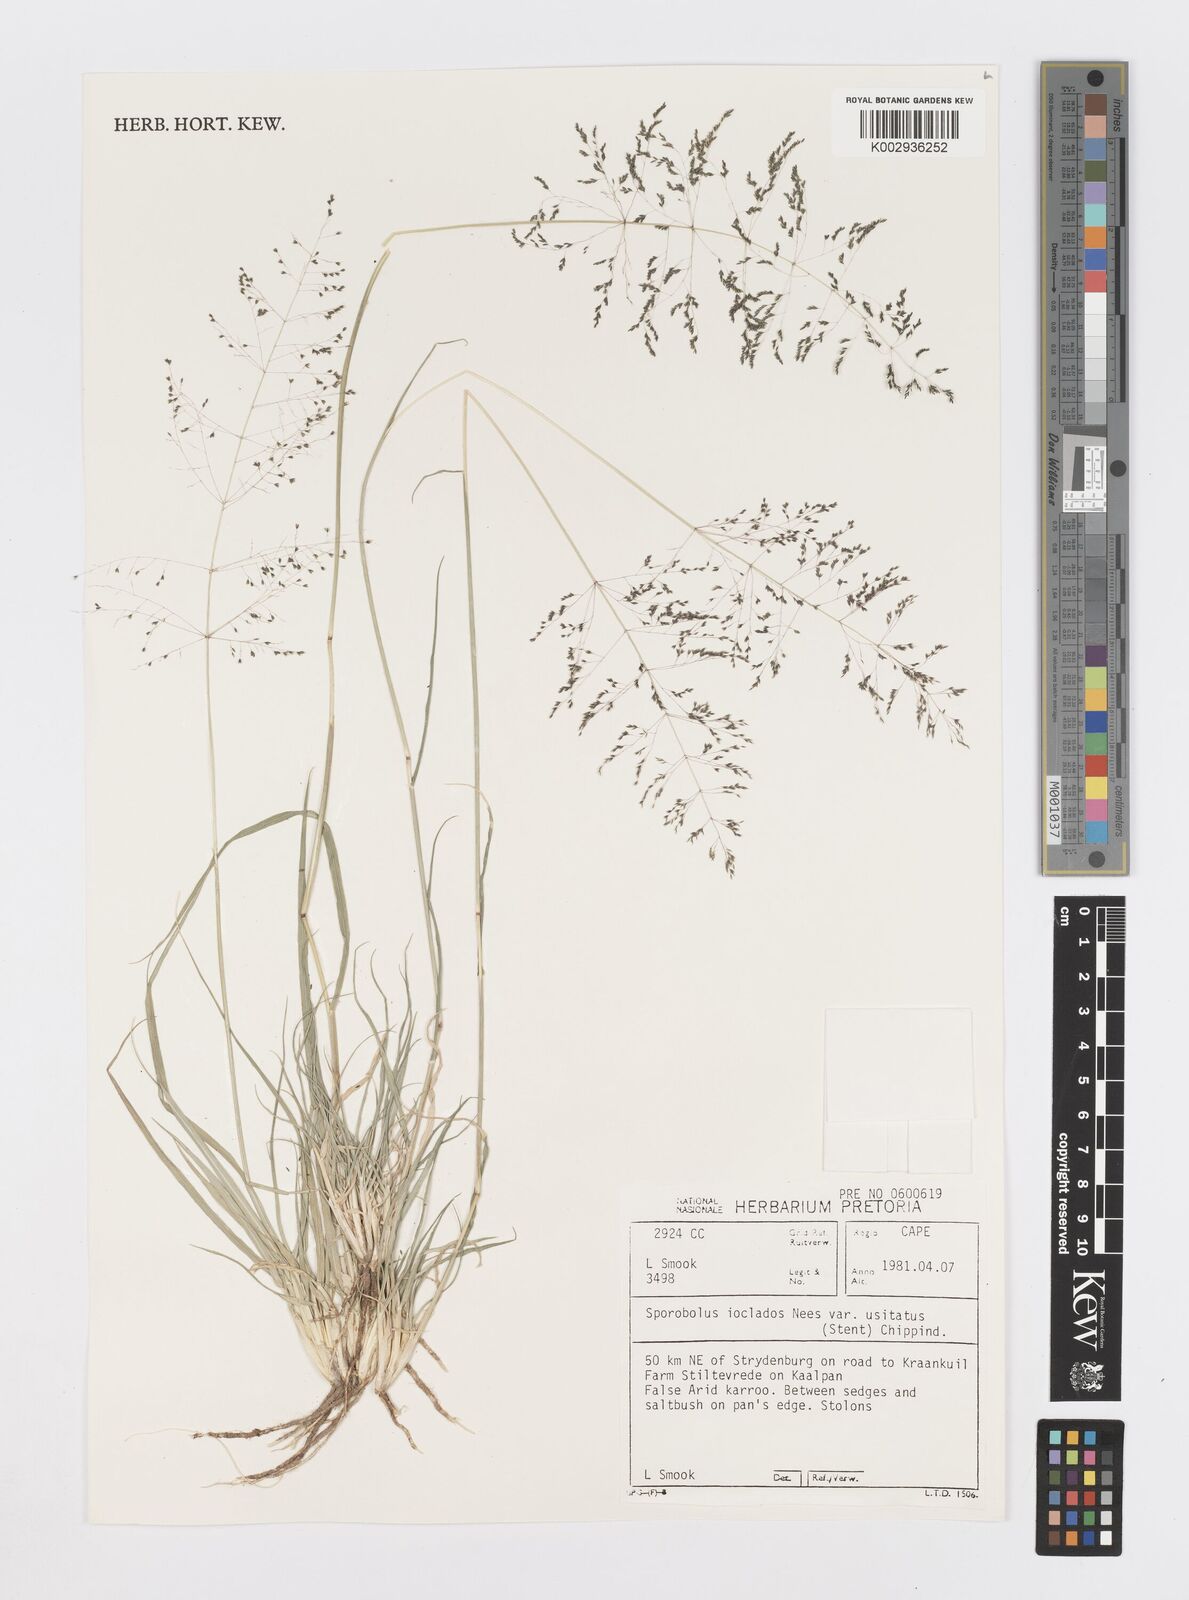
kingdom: Plantae
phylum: Tracheophyta
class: Liliopsida
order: Poales
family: Poaceae
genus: Sporobolus
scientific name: Sporobolus ioclados
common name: Pan dropseed
